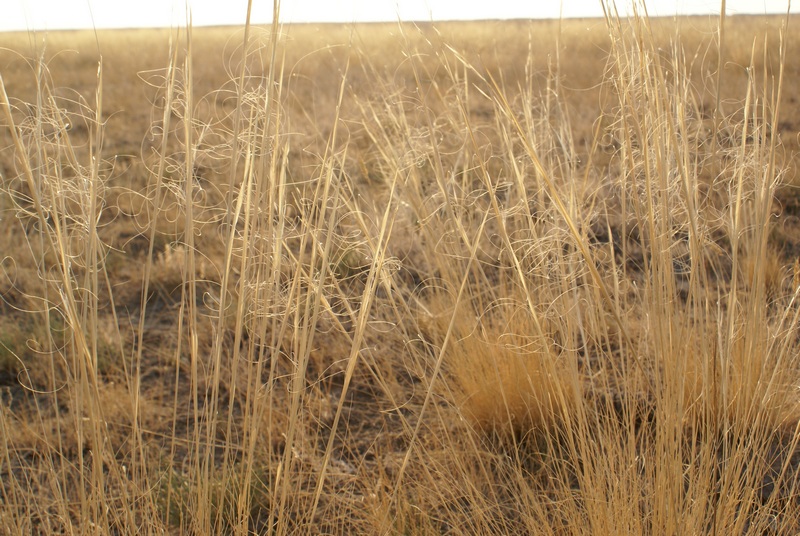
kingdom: Plantae
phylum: Tracheophyta
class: Liliopsida
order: Poales
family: Poaceae
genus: Stipa
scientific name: Stipa
